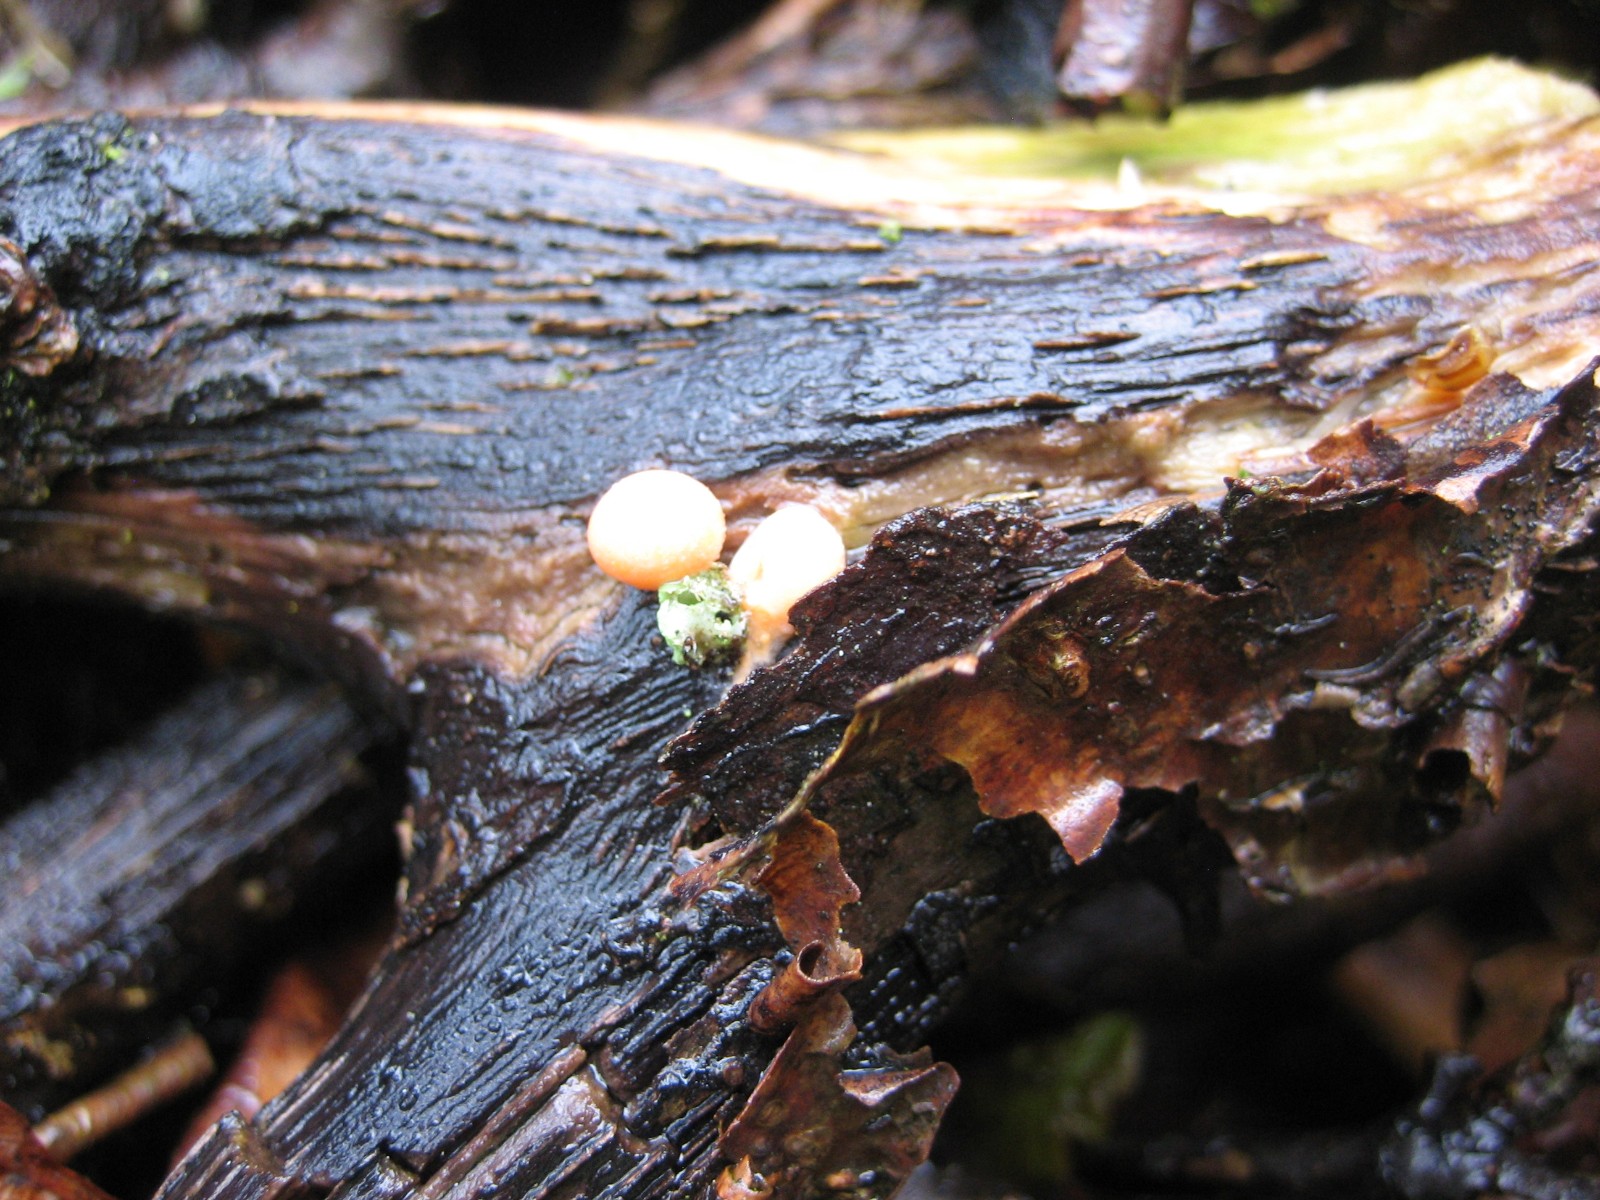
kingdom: Protozoa
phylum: Mycetozoa
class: Myxomycetes
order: Cribrariales
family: Tubiferaceae
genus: Lycogala
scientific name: Lycogala epidendrum
